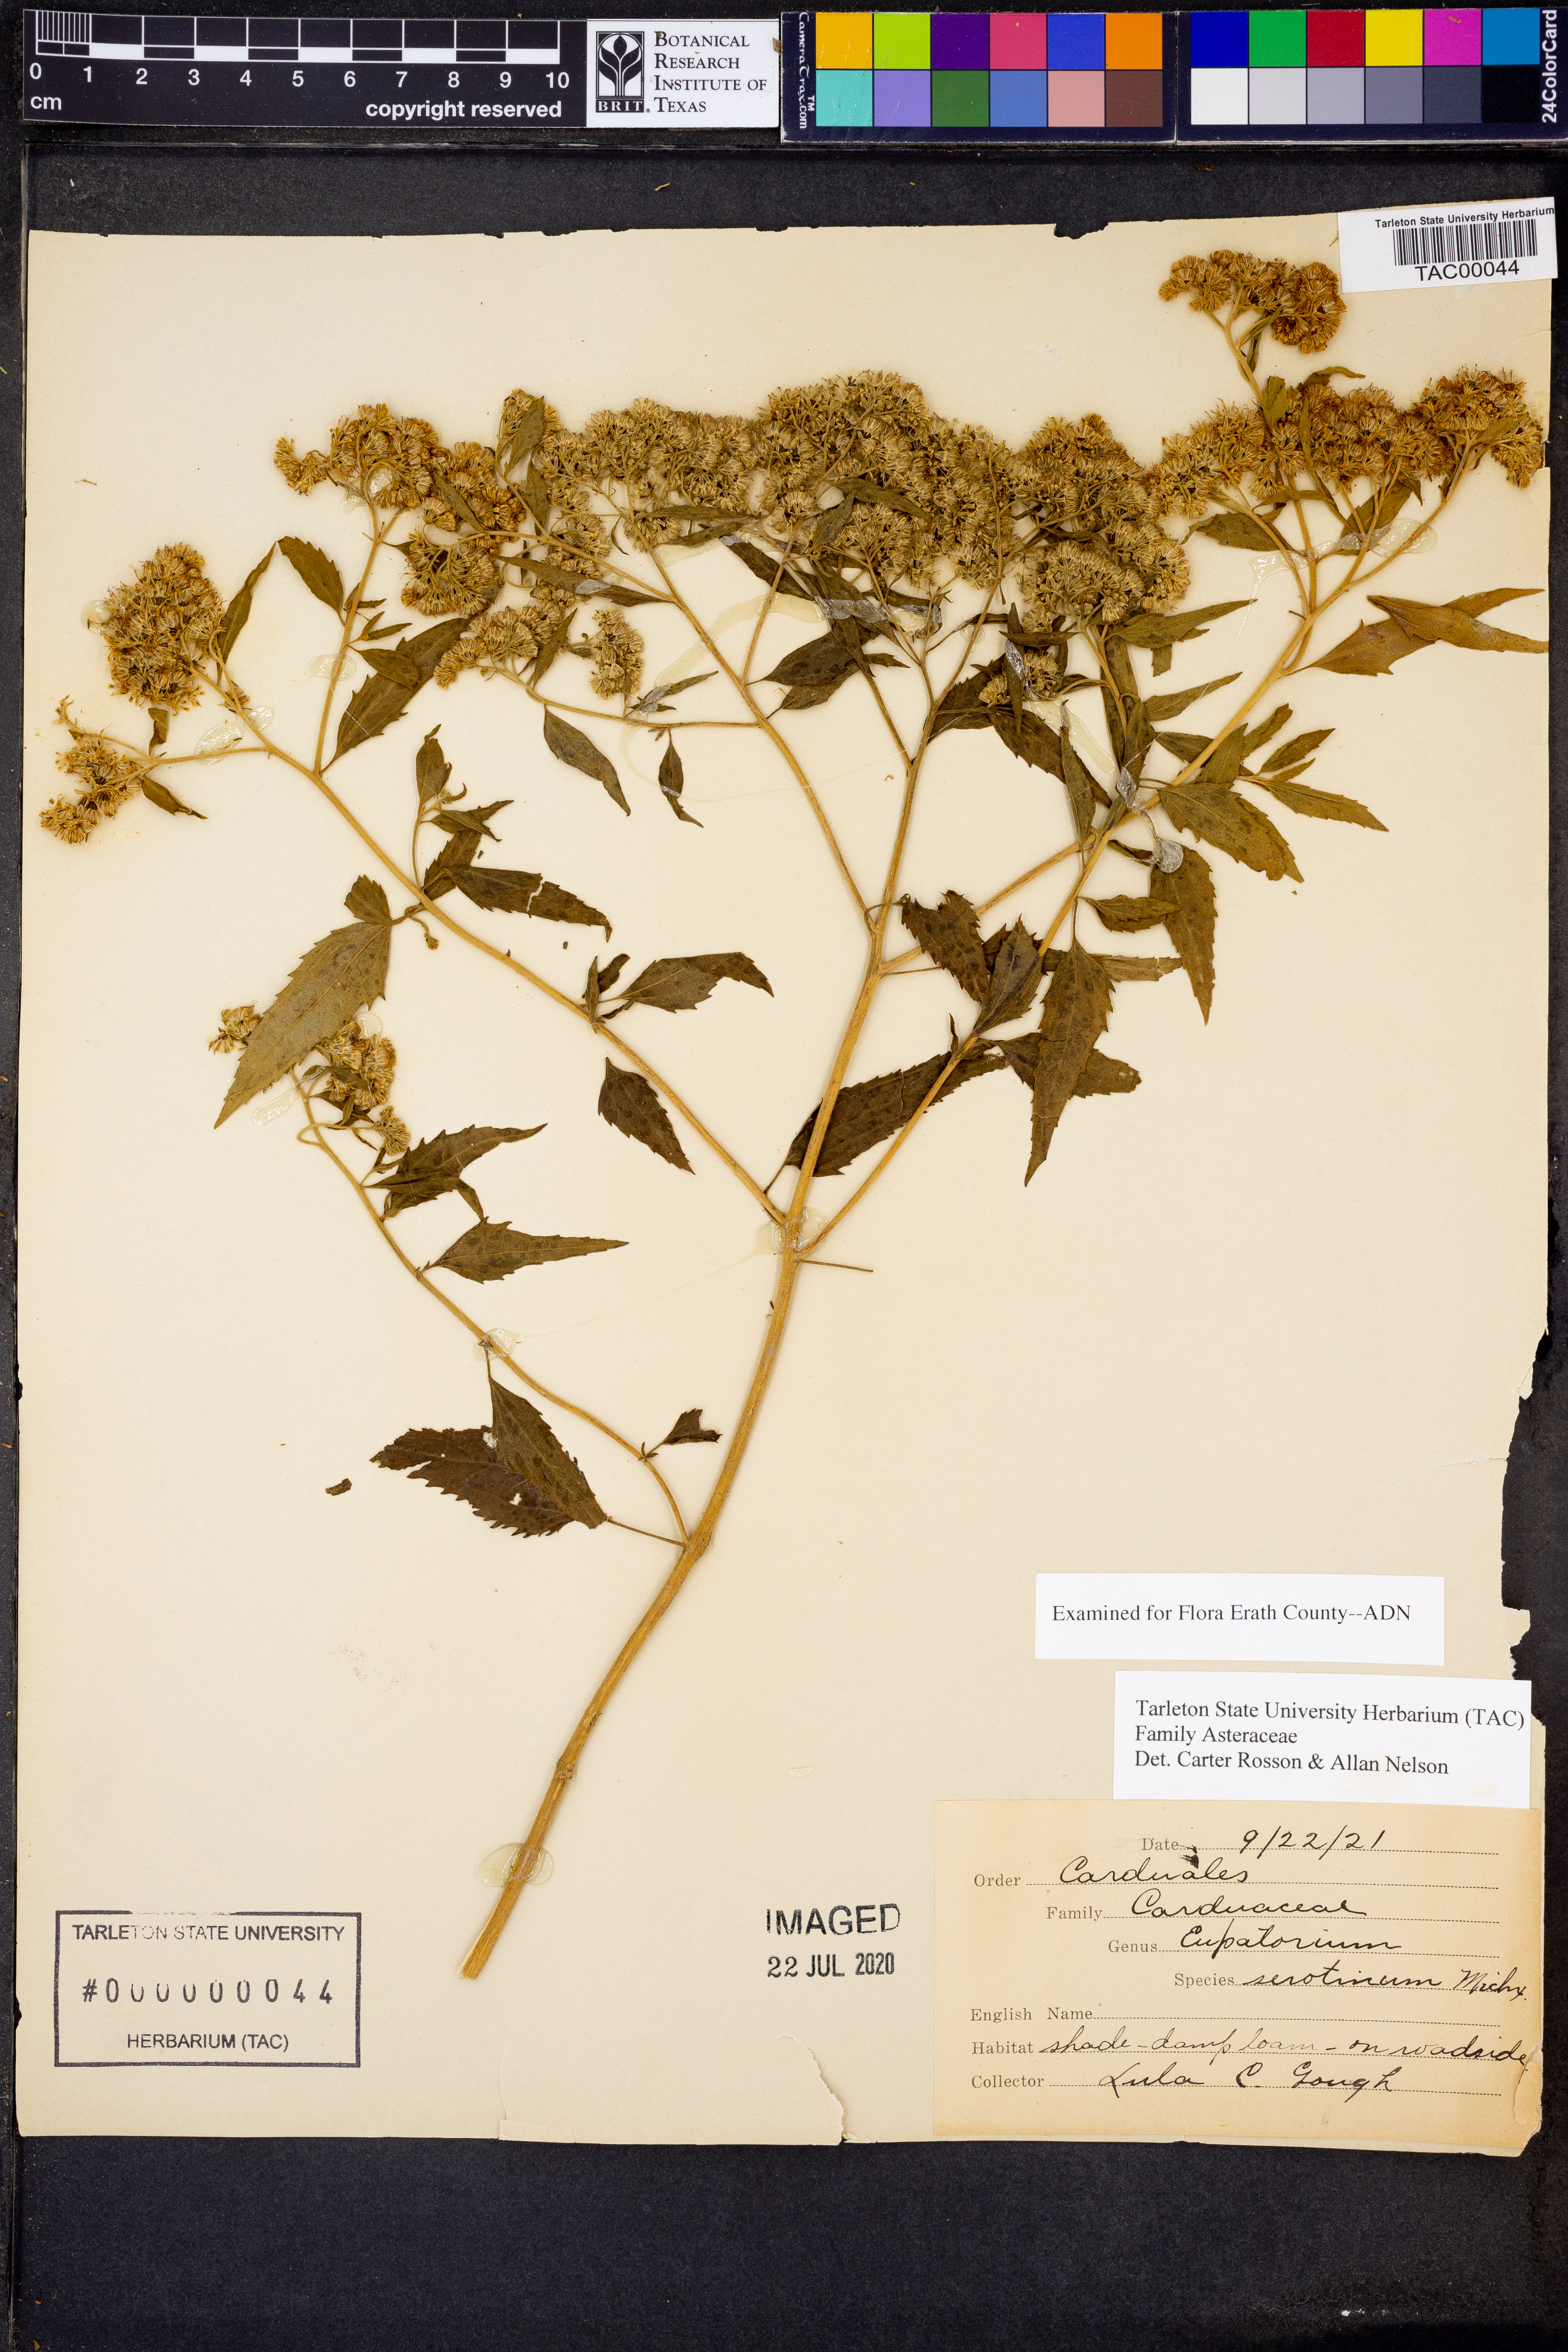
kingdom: Plantae
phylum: Tracheophyta
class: Magnoliopsida
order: Asterales
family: Asteraceae
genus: Eupatorium
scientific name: Eupatorium serotinum
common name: Late boneset
